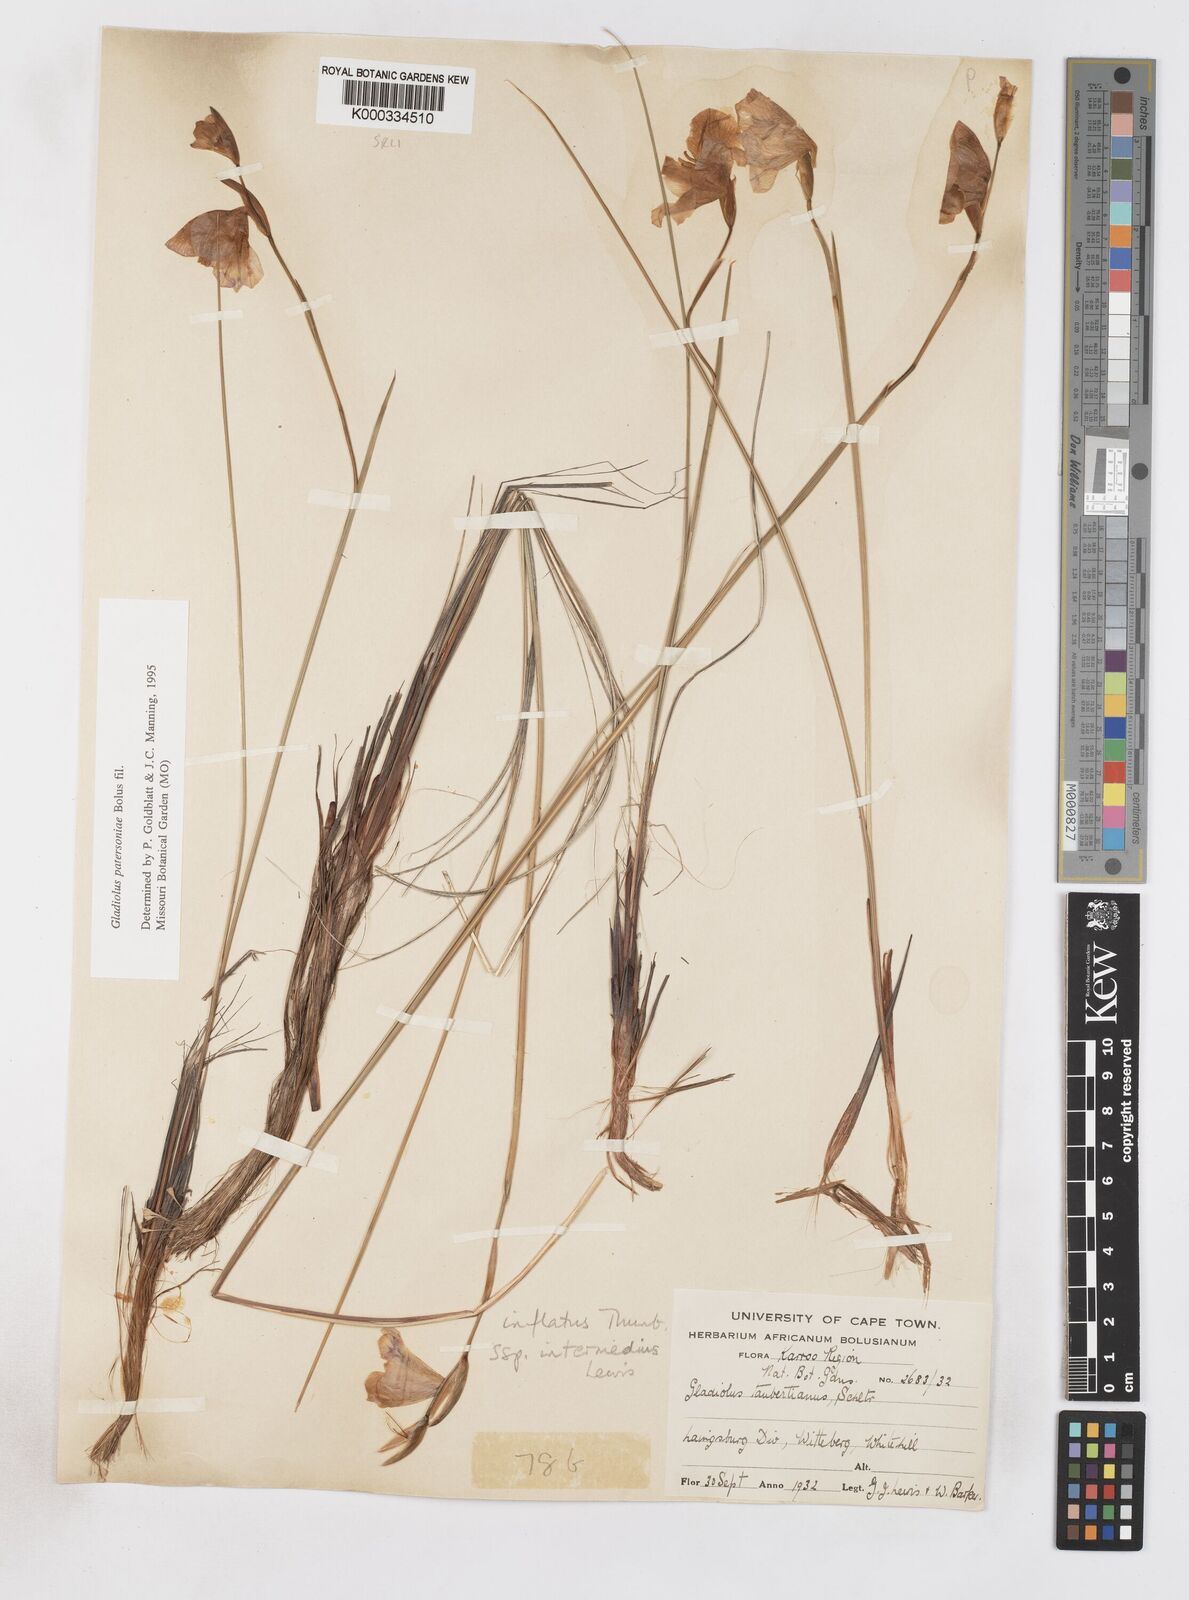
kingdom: Plantae
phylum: Tracheophyta
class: Liliopsida
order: Asparagales
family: Iridaceae
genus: Gladiolus
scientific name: Gladiolus patersoniae
